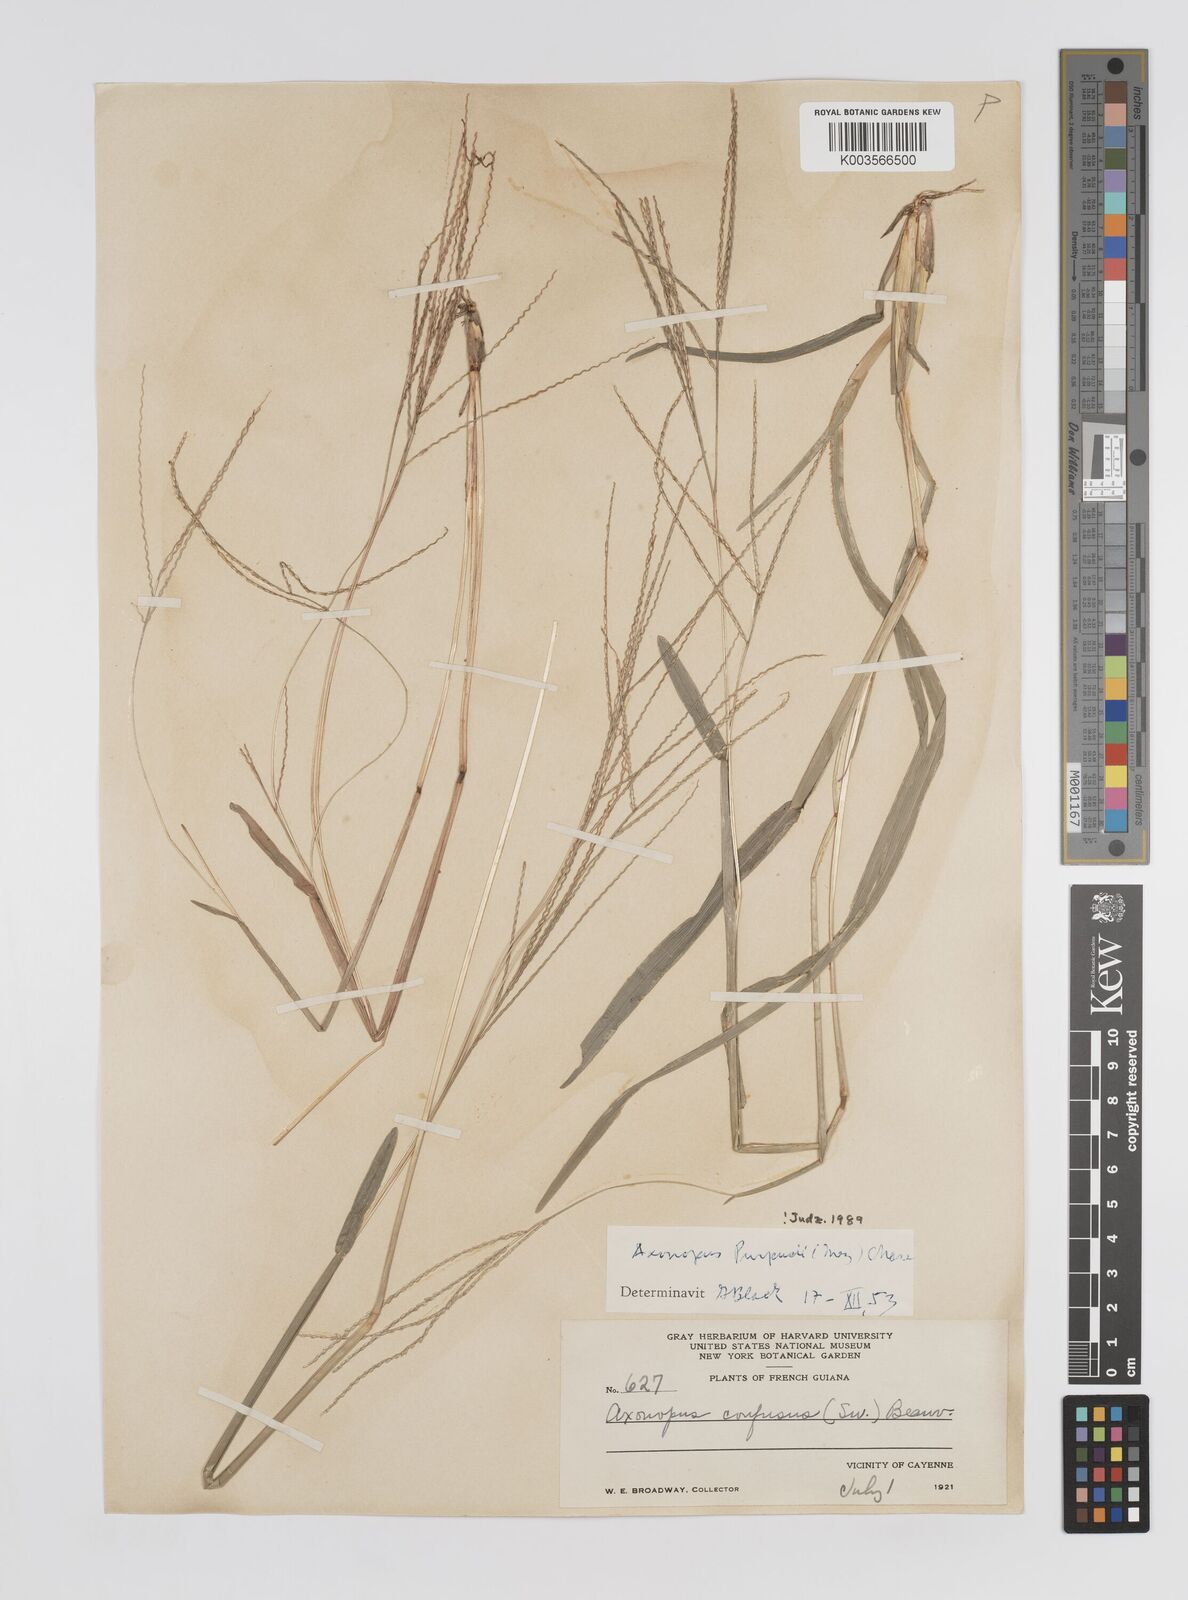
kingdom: Plantae
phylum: Tracheophyta
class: Liliopsida
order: Poales
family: Poaceae
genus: Axonopus
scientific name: Axonopus purpusii
